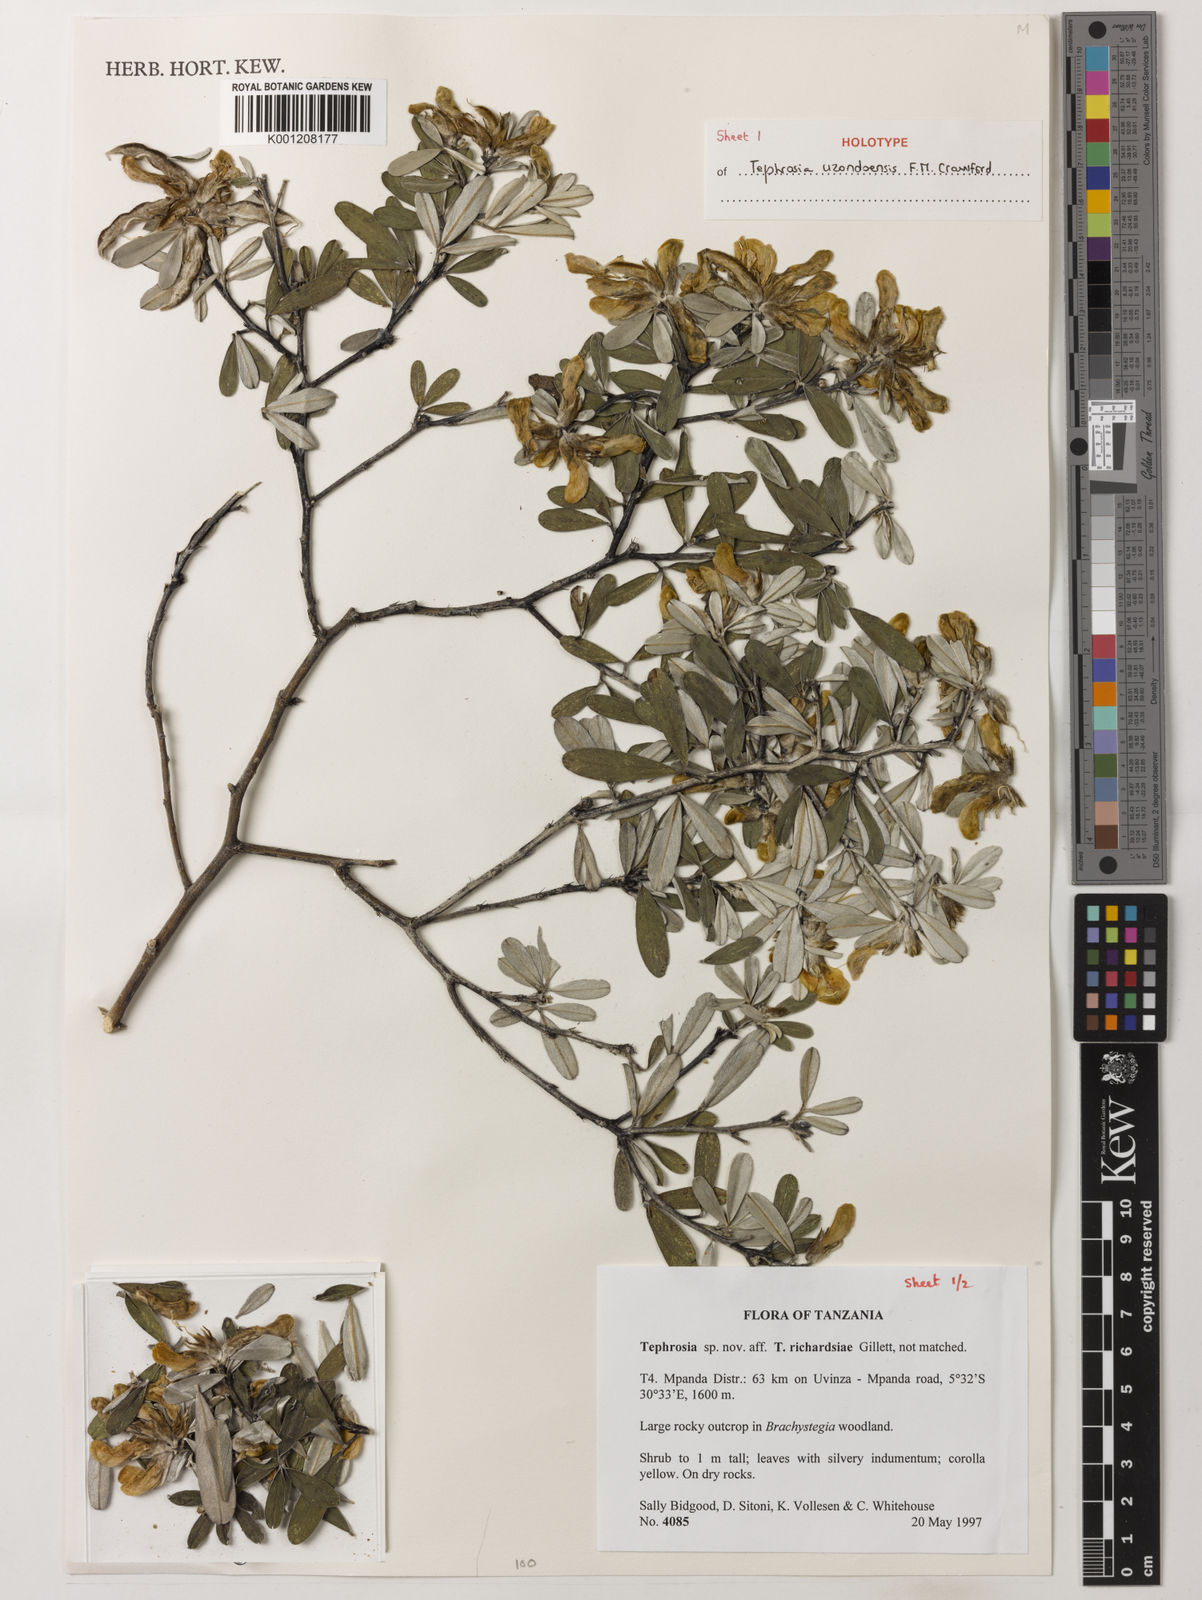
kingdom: Plantae
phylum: Tracheophyta
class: Magnoliopsida
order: Fabales
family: Fabaceae
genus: Crotalaria
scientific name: Crotalaria
